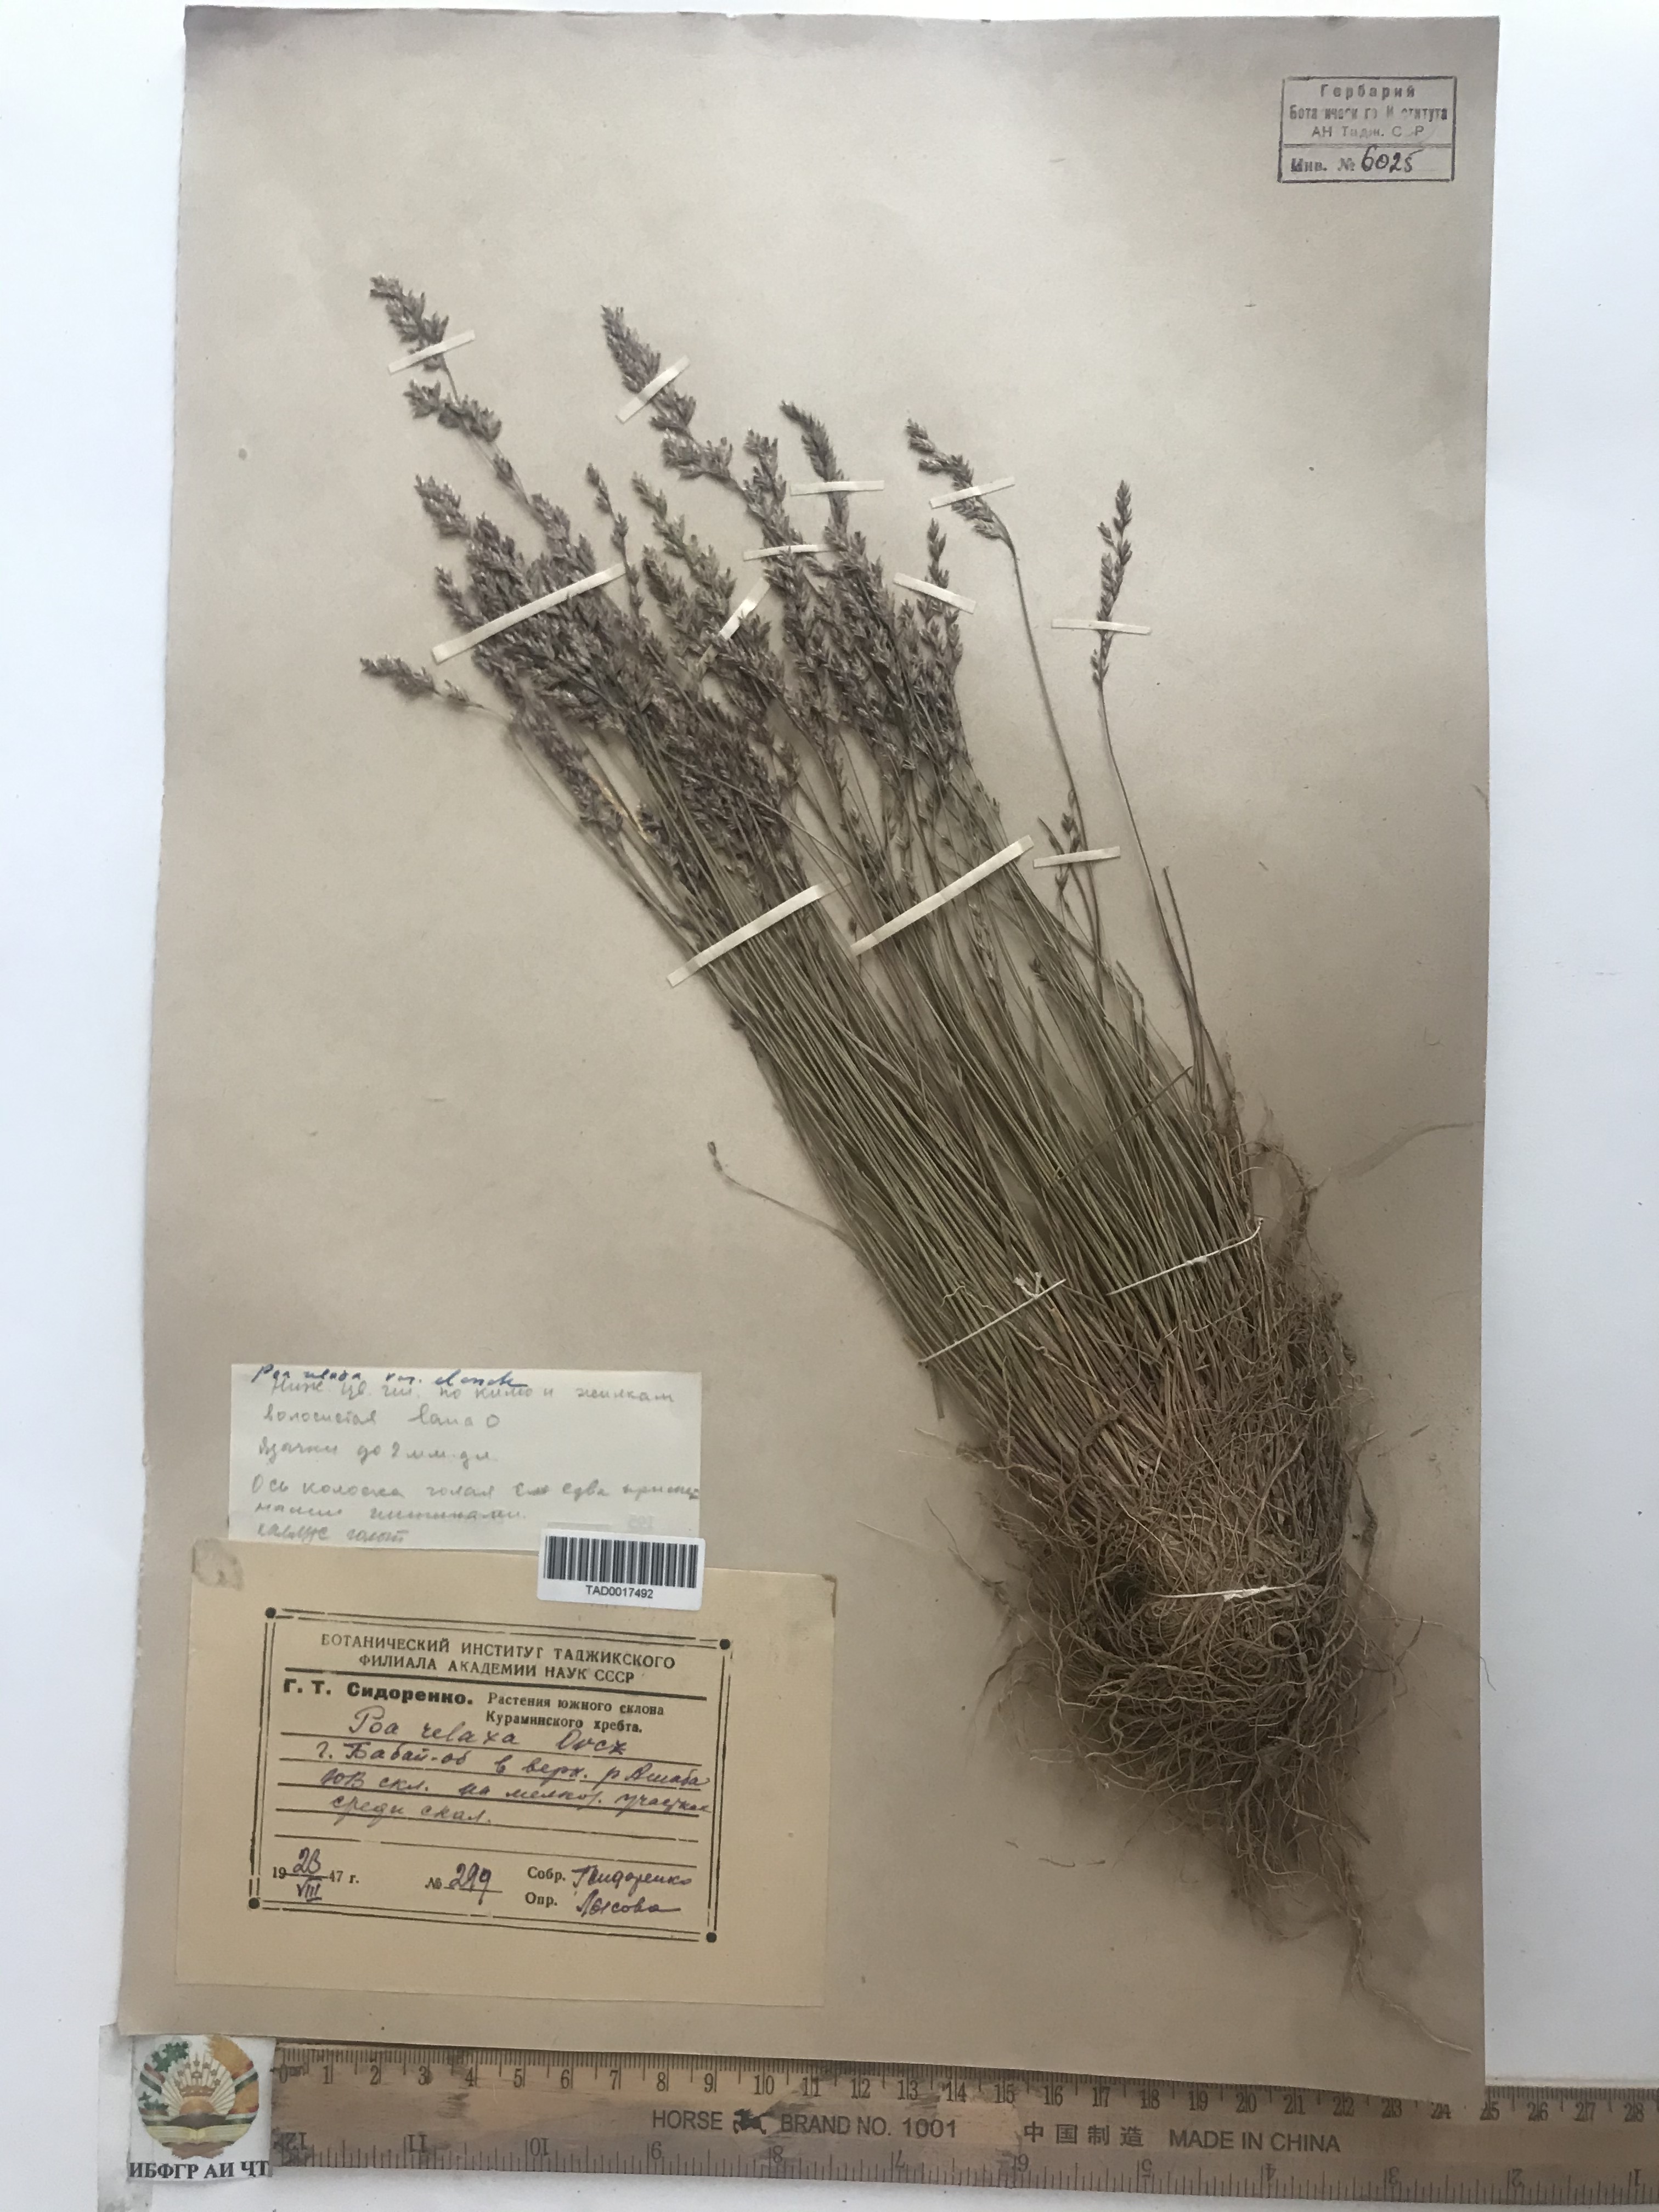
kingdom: Plantae
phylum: Tracheophyta
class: Liliopsida
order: Poales
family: Poaceae
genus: Poa
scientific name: Poa versicolor
